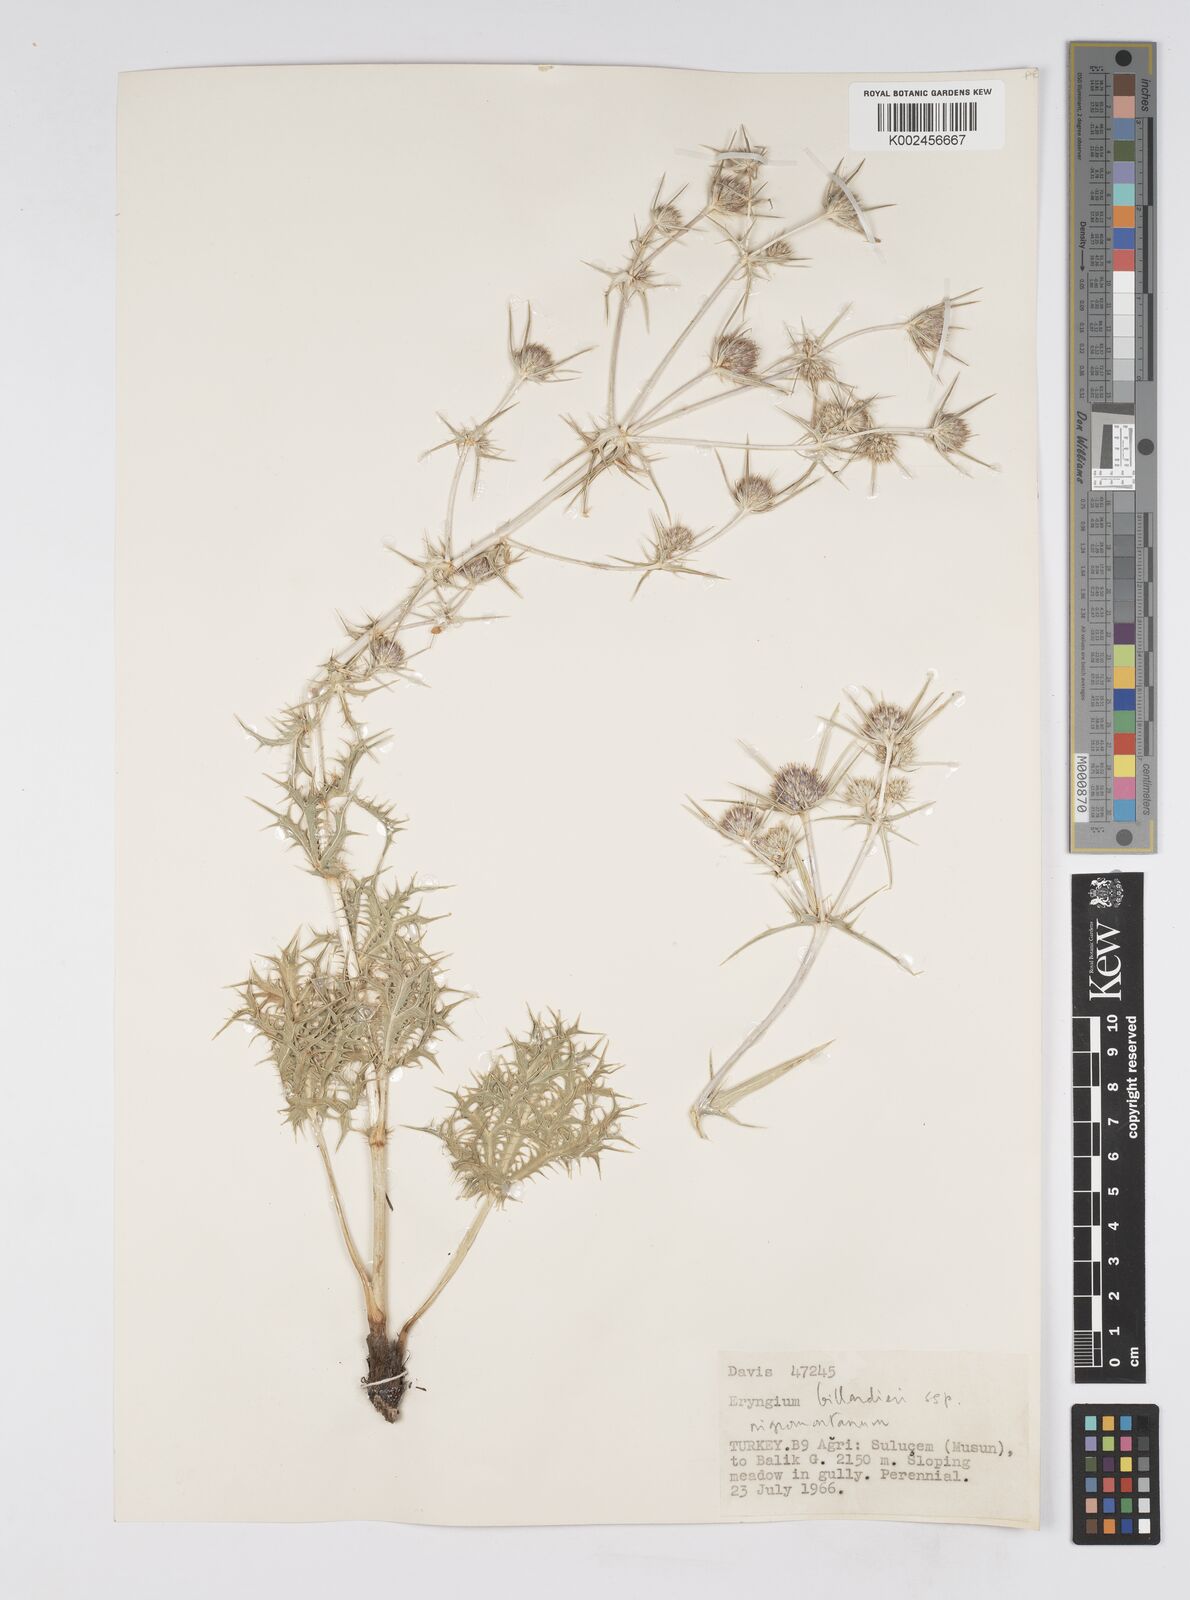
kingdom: Plantae
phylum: Tracheophyta
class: Magnoliopsida
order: Apiales
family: Apiaceae
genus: Eryngium
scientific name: Eryngium billardierei
